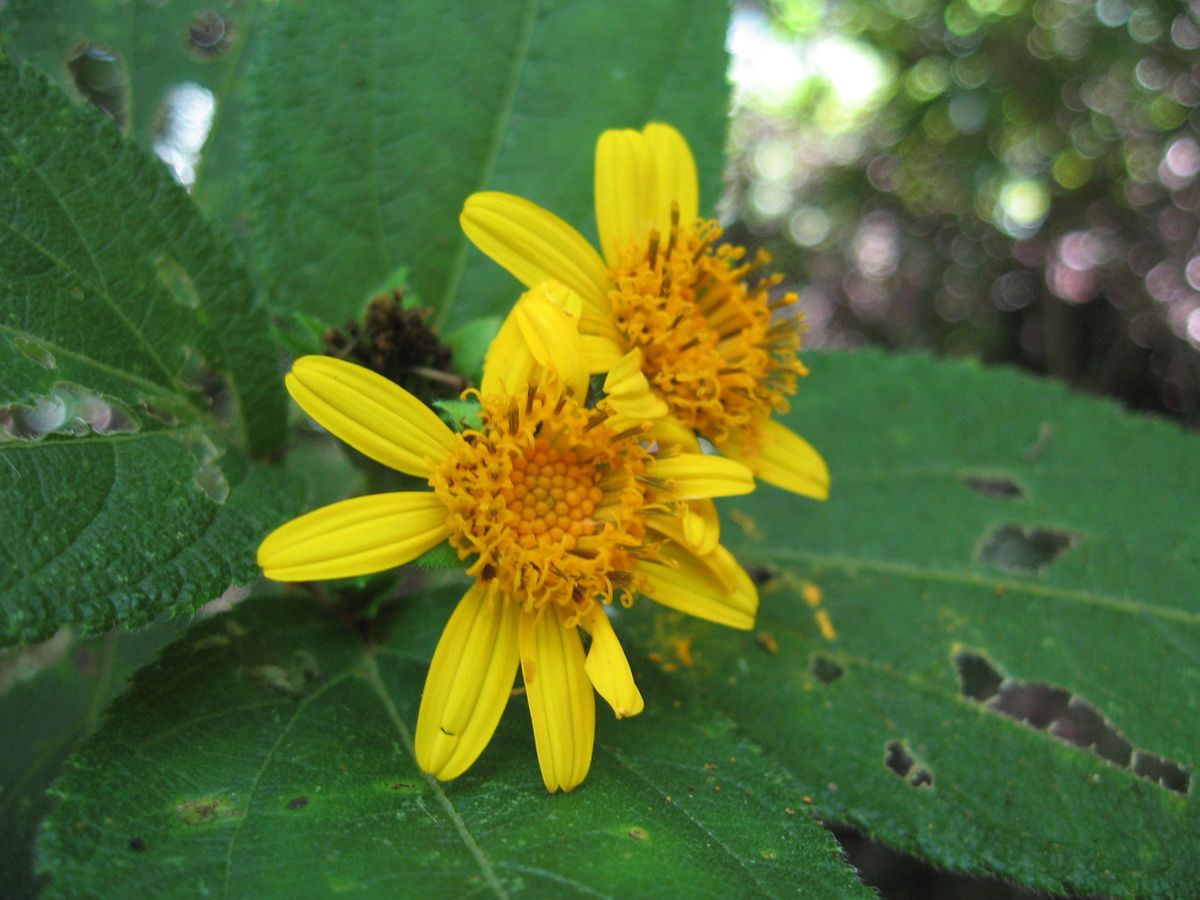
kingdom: Plantae
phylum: Tracheophyta
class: Magnoliopsida
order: Asterales
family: Asteraceae
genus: Perymenium
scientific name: Perymenium grande
